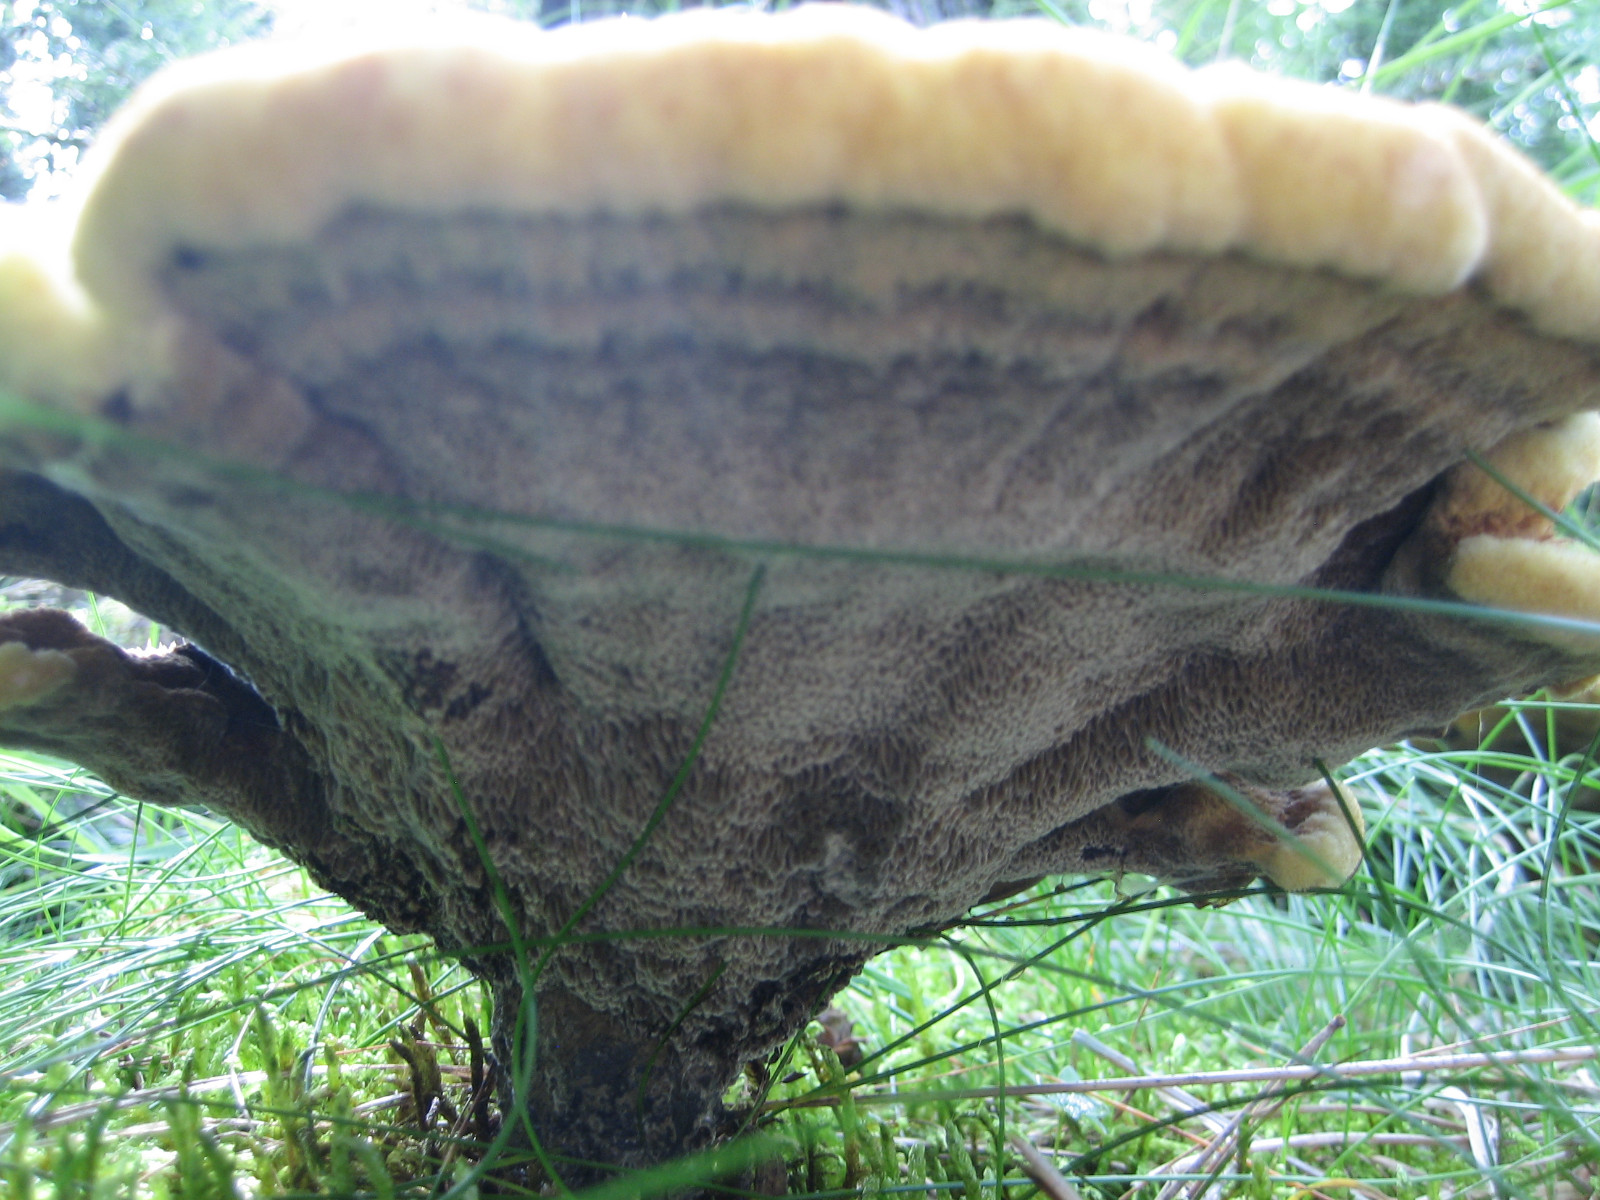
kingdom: Fungi
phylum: Basidiomycota
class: Agaricomycetes
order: Polyporales
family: Laetiporaceae
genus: Phaeolus
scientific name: Phaeolus schweinitzii
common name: brunporesvamp
